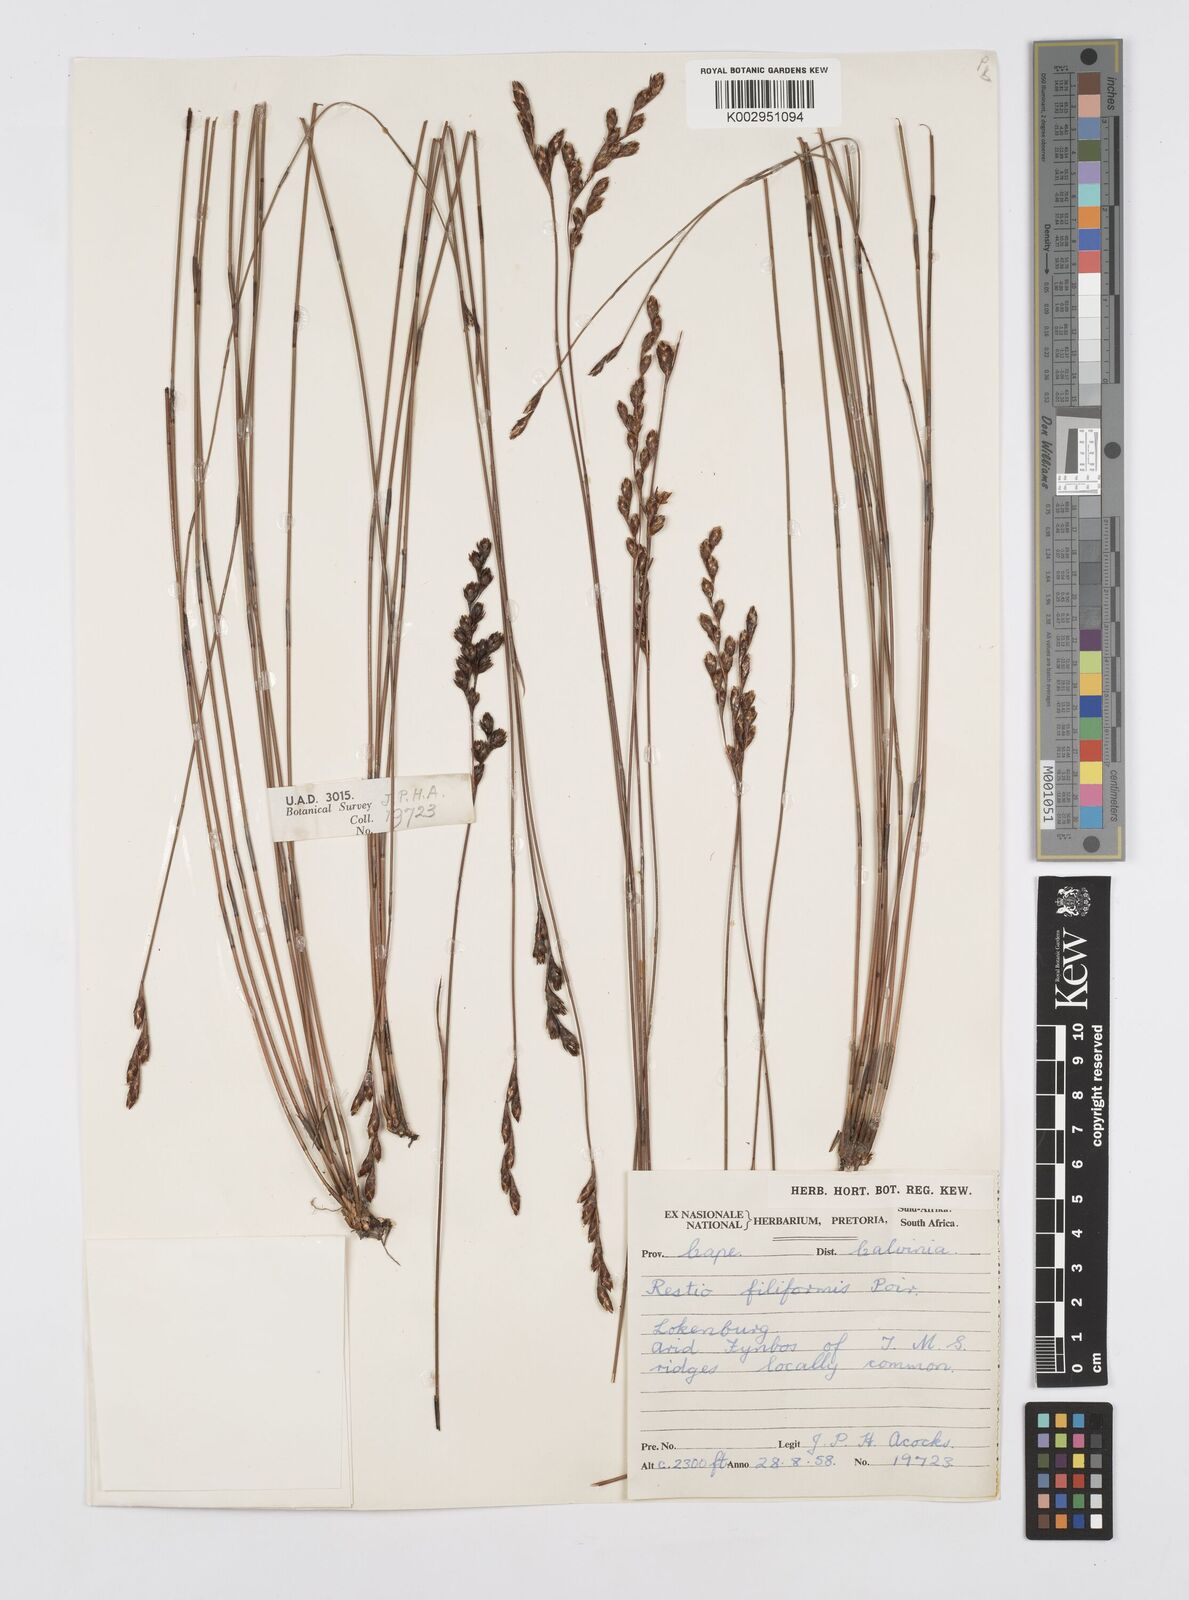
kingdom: Plantae
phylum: Tracheophyta
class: Liliopsida
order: Poales
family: Restionaceae
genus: Restio
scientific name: Restio filiformis
